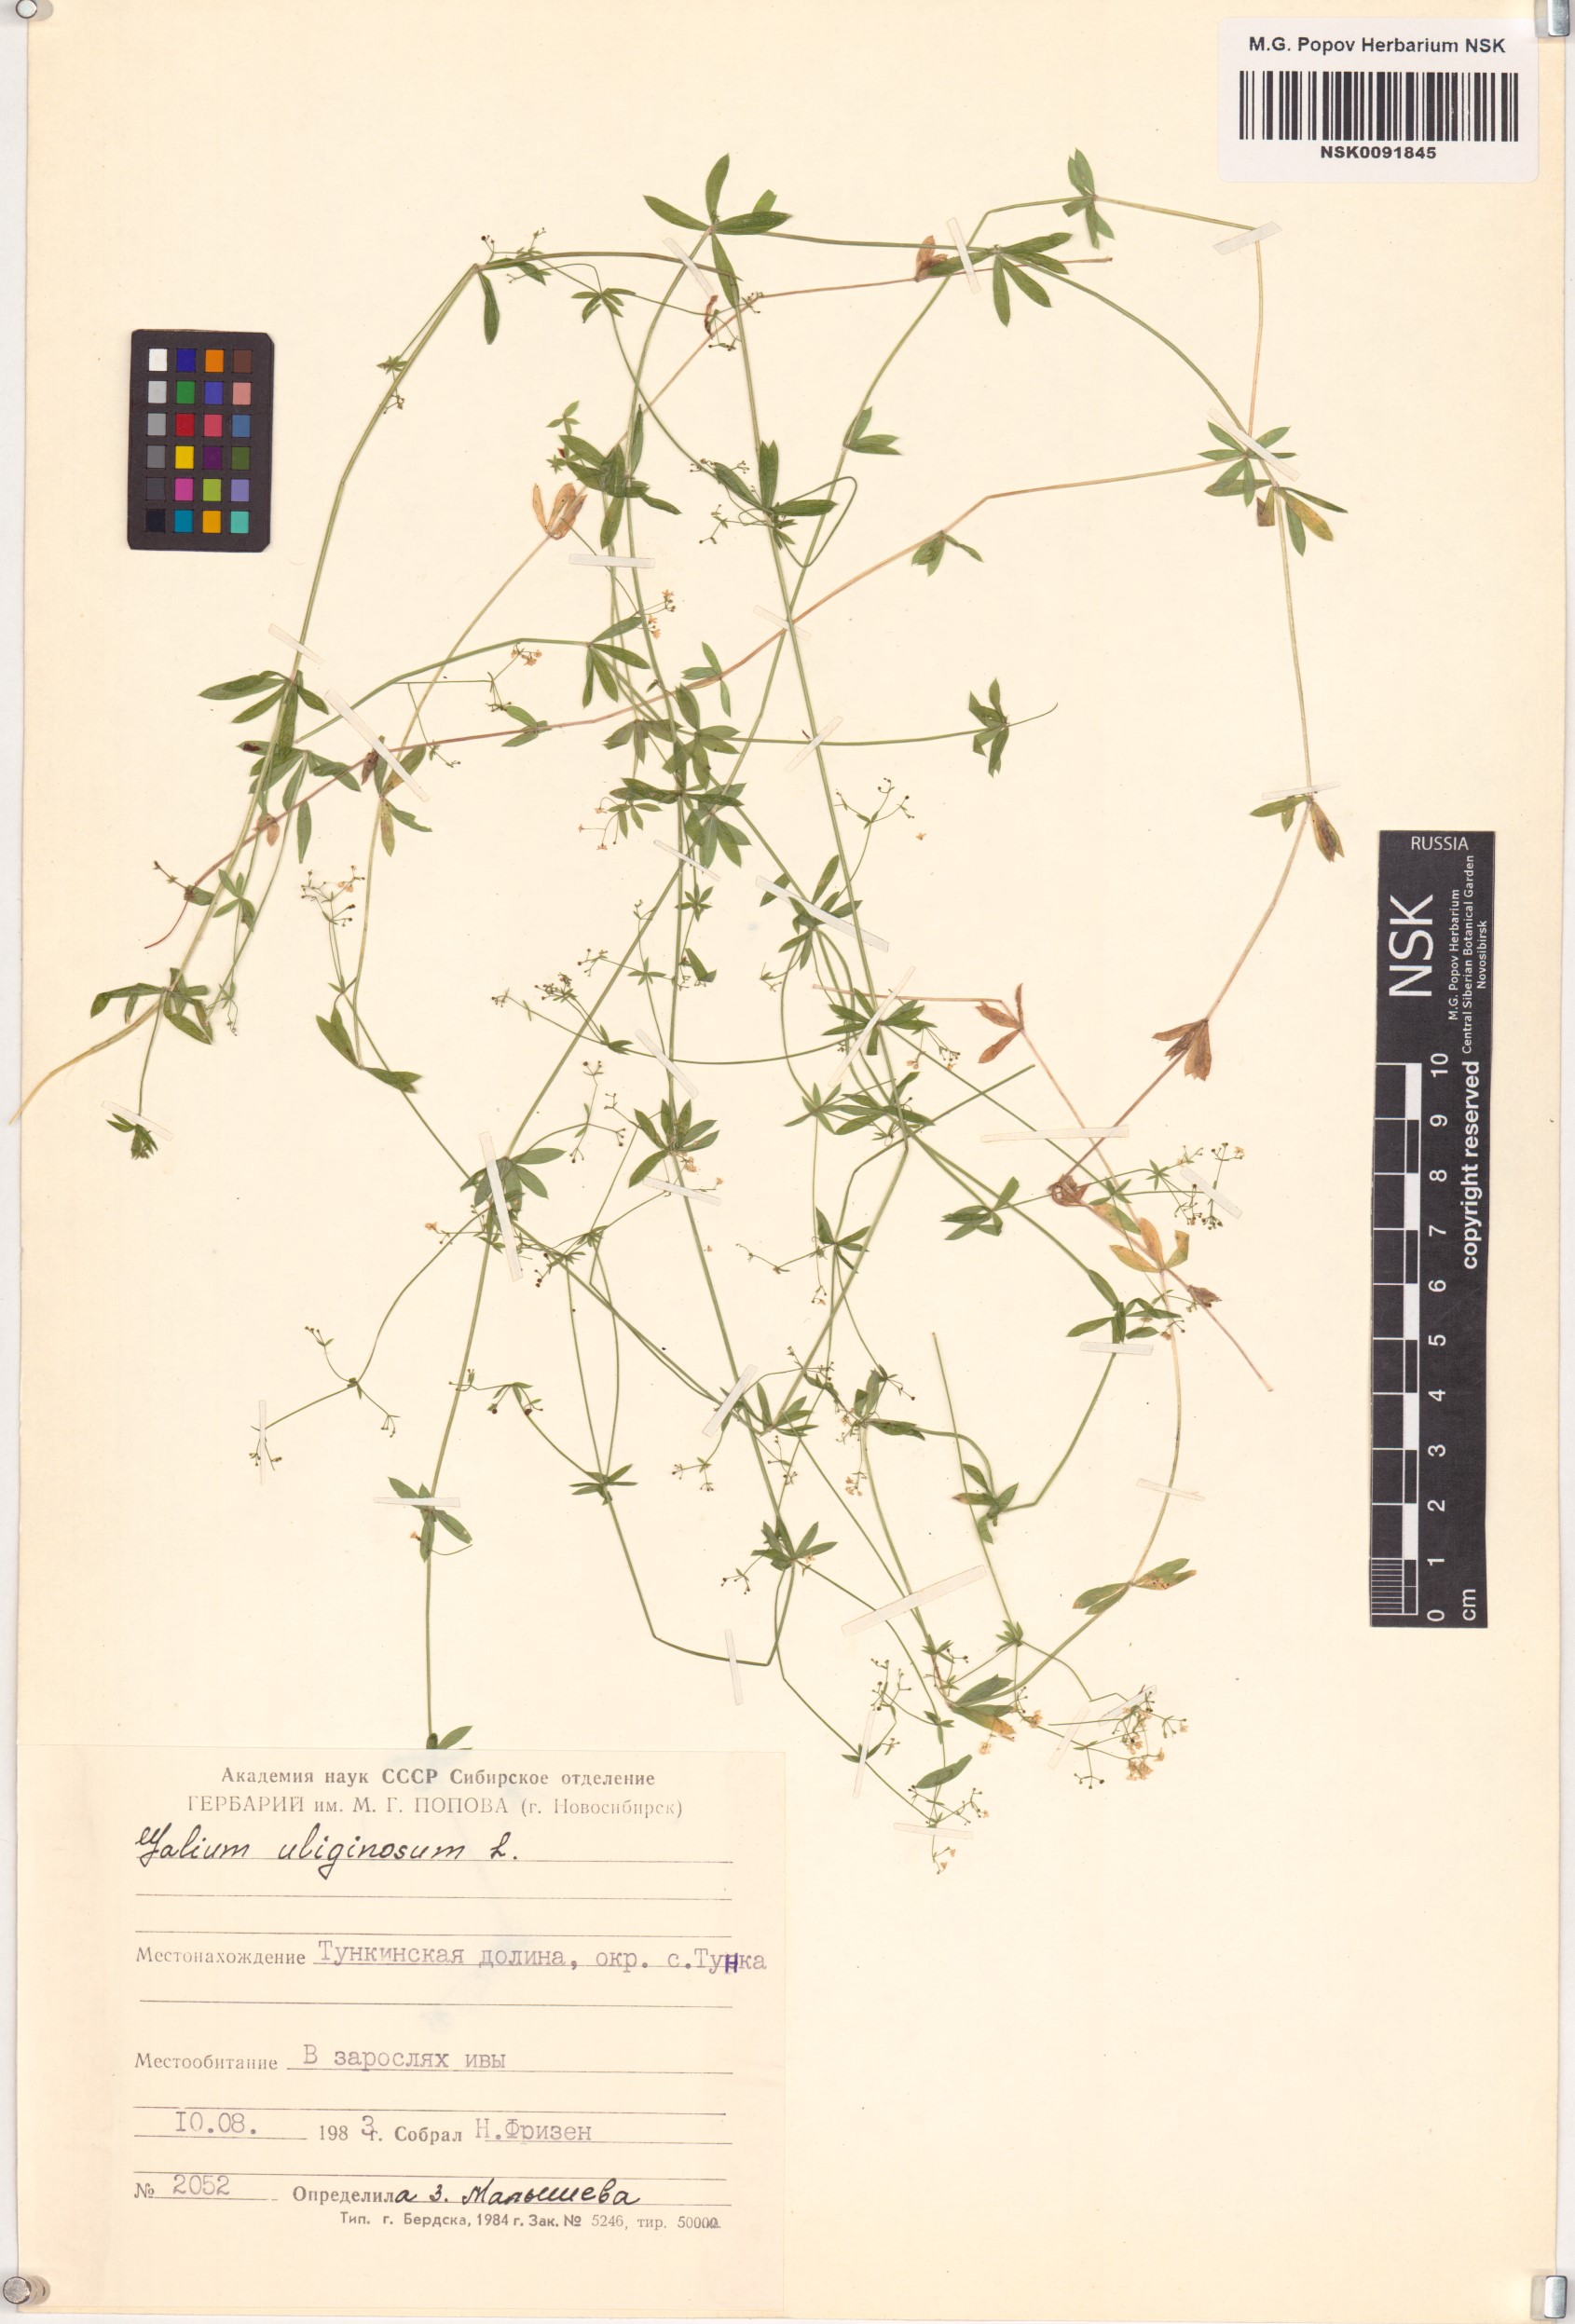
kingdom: Plantae
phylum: Tracheophyta
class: Magnoliopsida
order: Gentianales
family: Rubiaceae
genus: Galium
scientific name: Galium uliginosum
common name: Fen bedstraw
